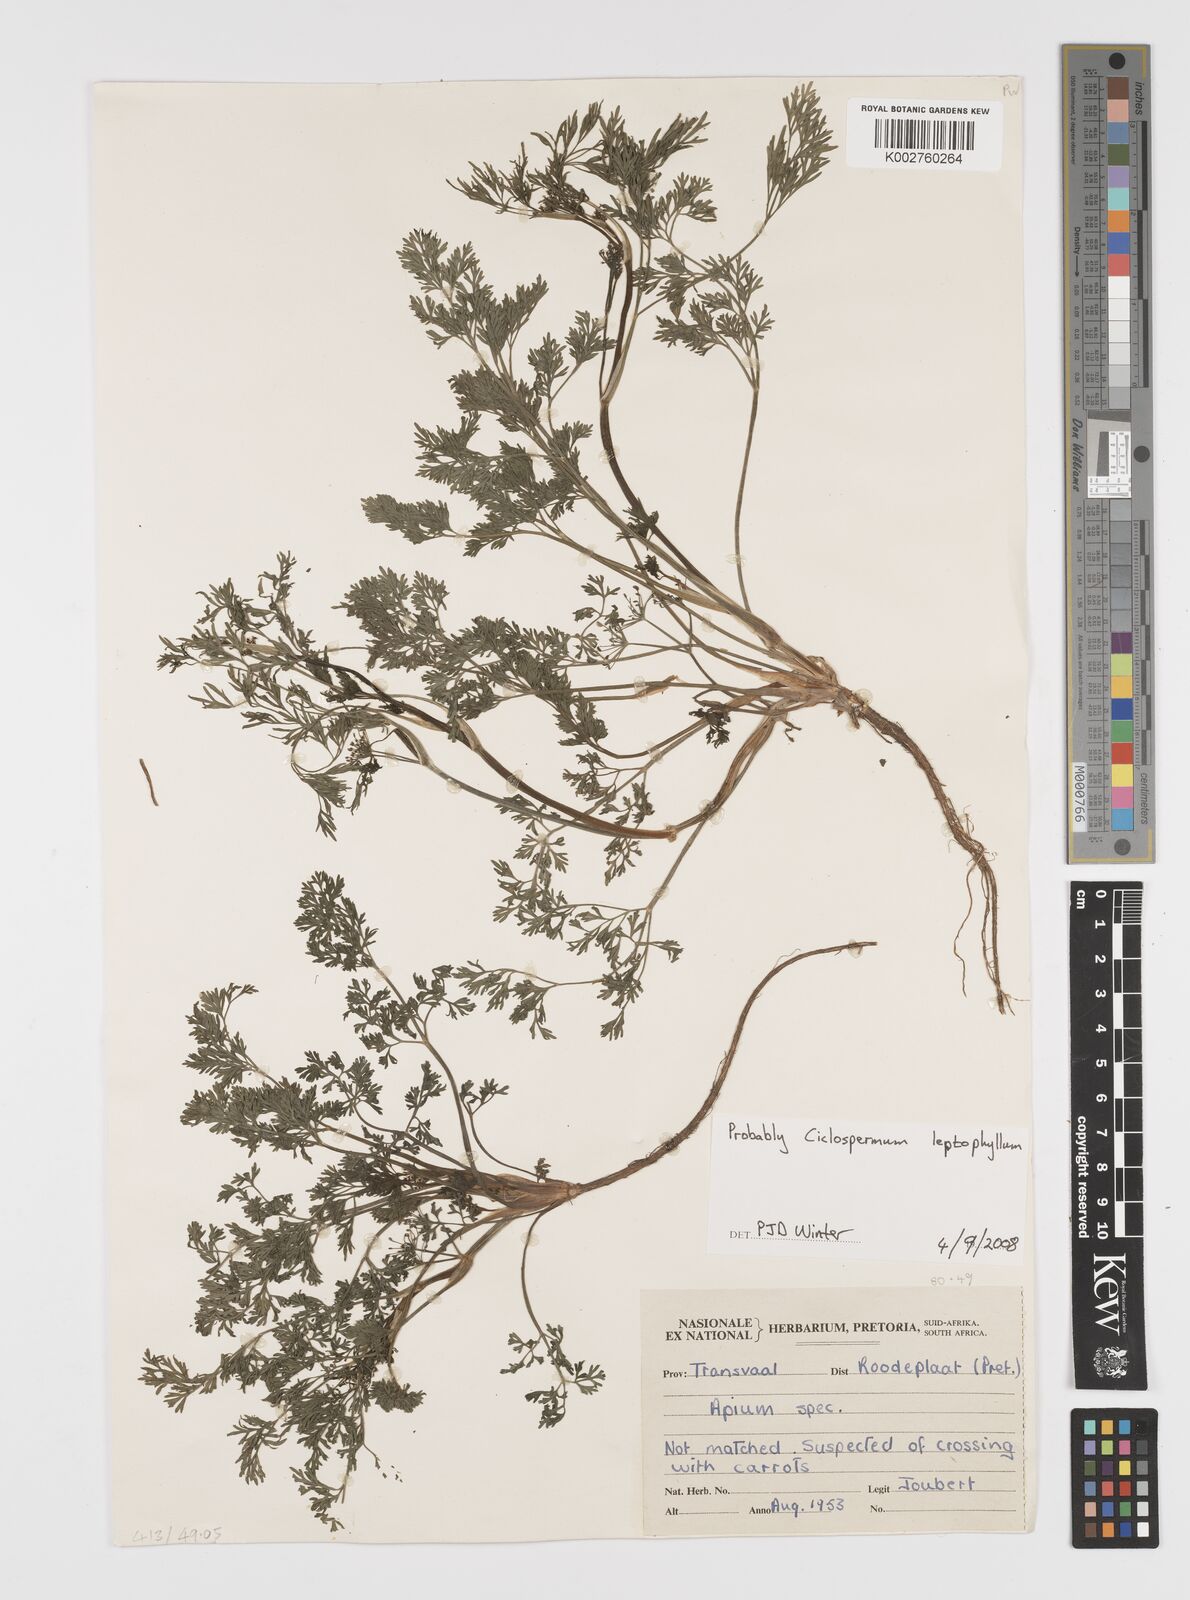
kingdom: Plantae
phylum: Tracheophyta
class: Magnoliopsida
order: Apiales
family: Apiaceae
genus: Cyclospermum
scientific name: Cyclospermum leptophyllum
